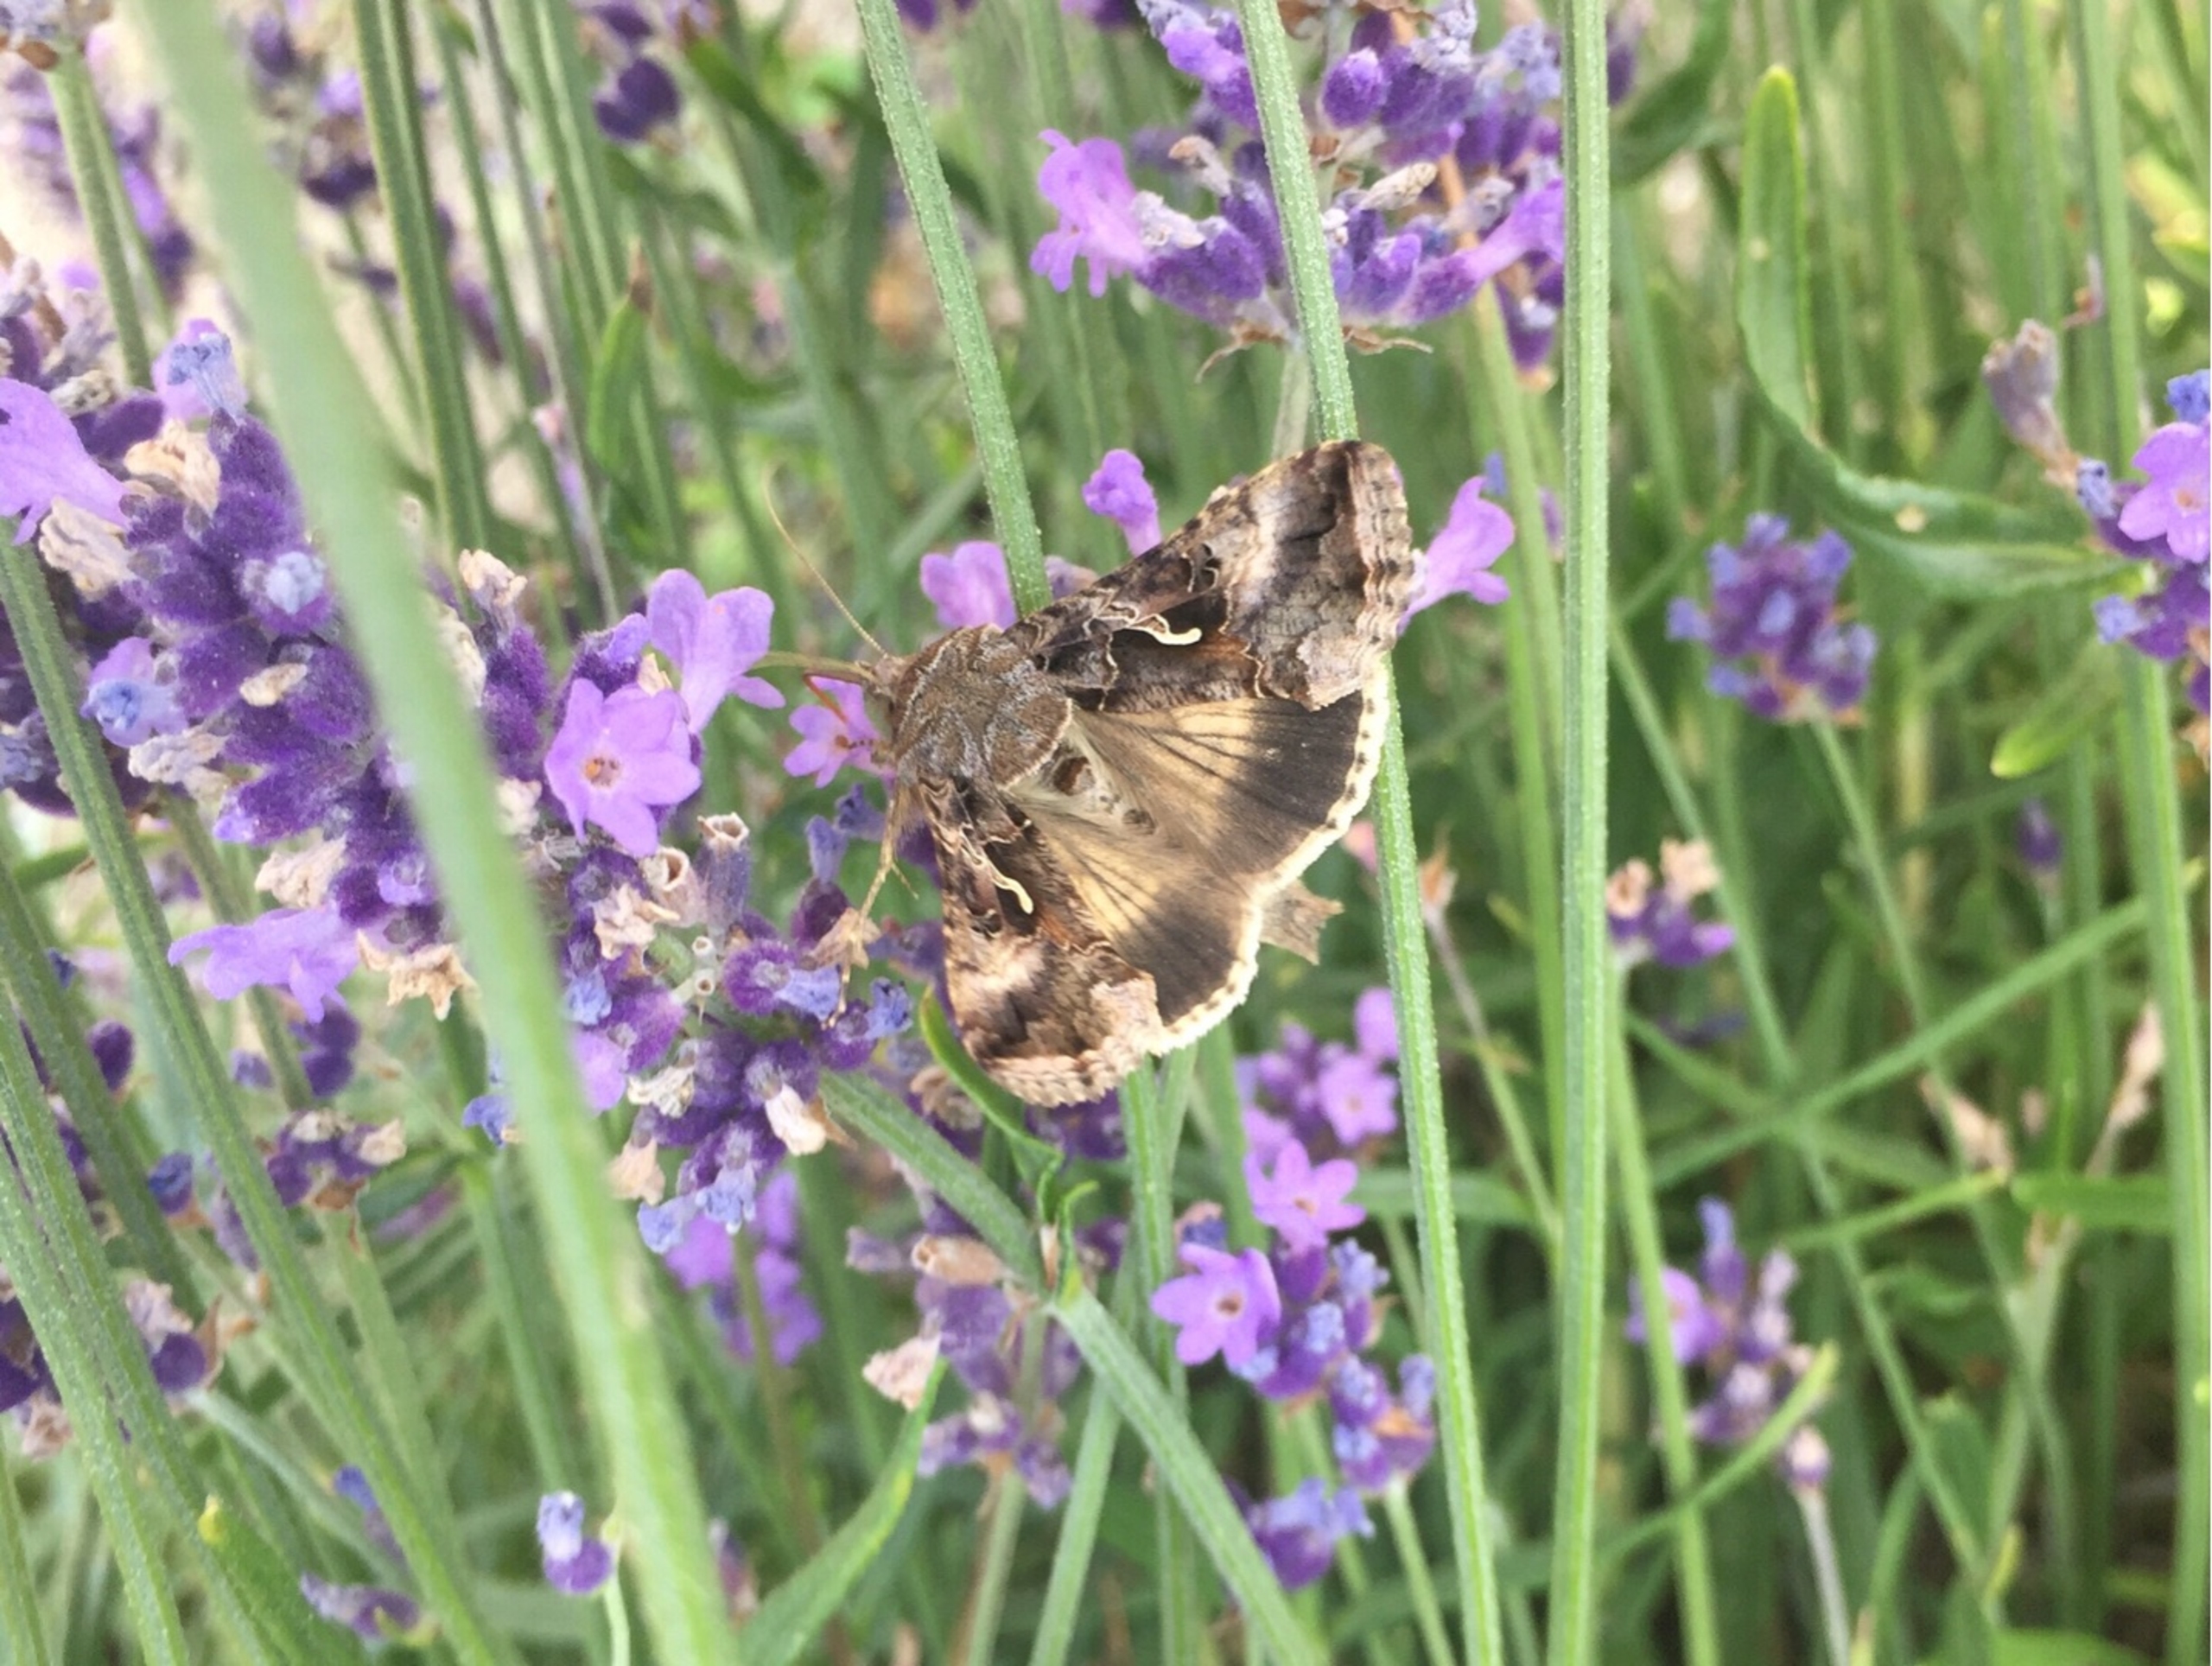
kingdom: Animalia
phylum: Arthropoda
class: Insecta
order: Lepidoptera
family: Noctuidae
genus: Autographa
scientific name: Autographa gamma
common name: Gammaugle
